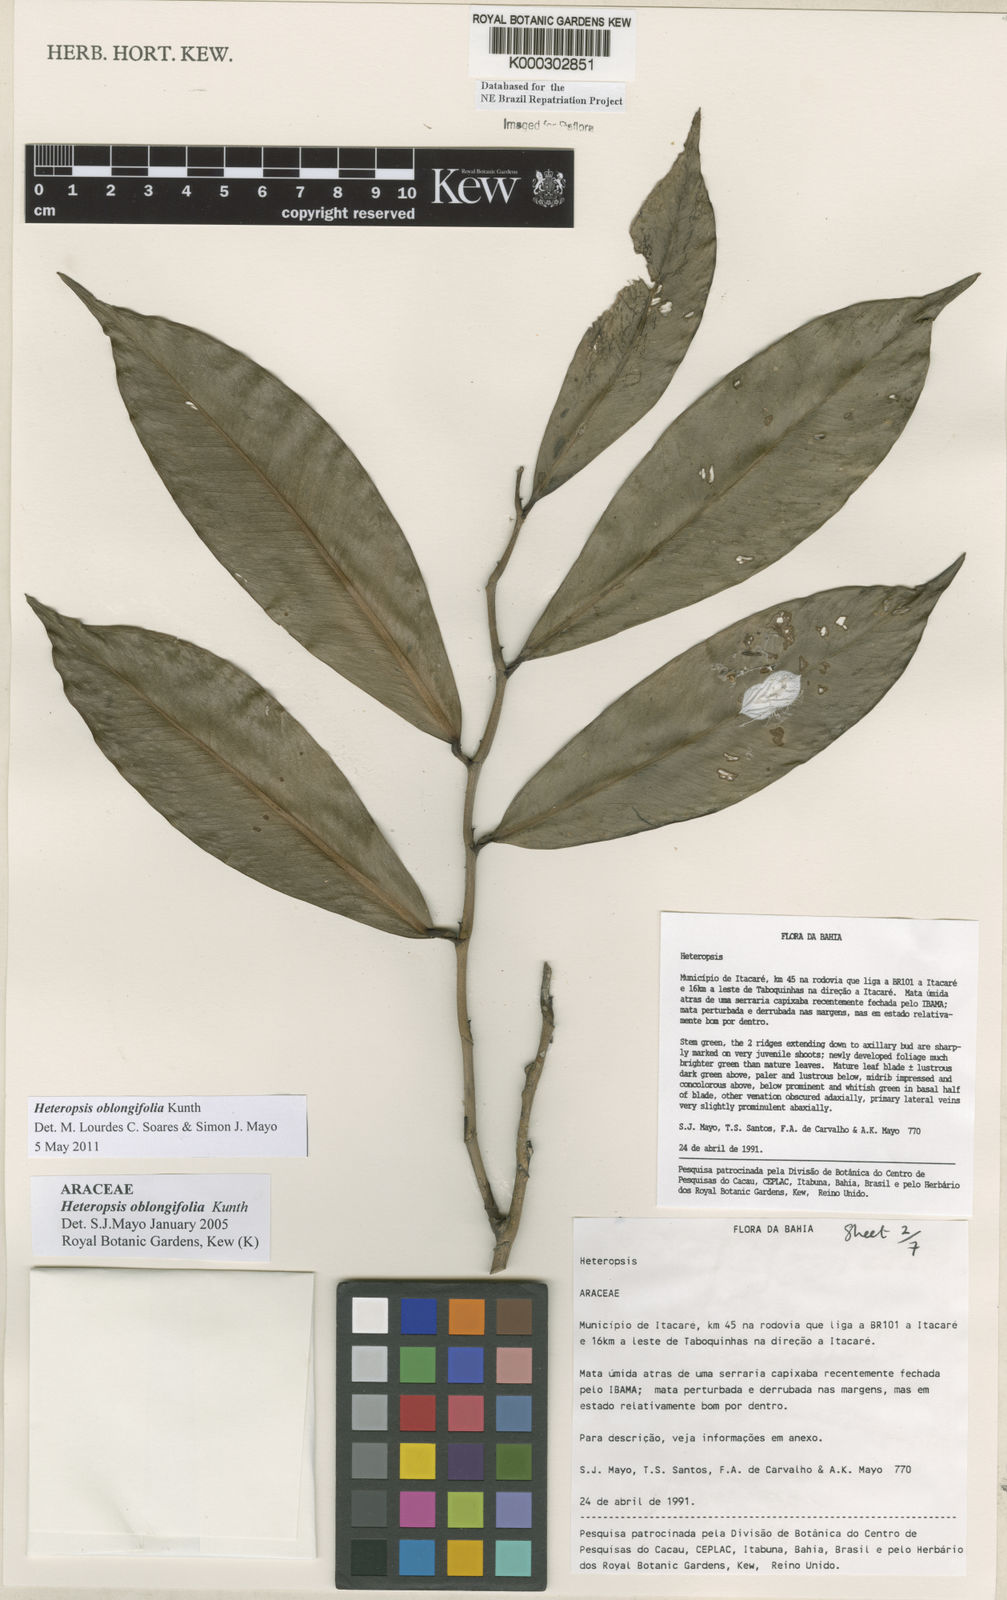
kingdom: Plantae
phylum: Tracheophyta
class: Liliopsida
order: Alismatales
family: Araceae
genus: Heteropsis
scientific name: Heteropsis oblongifolia
